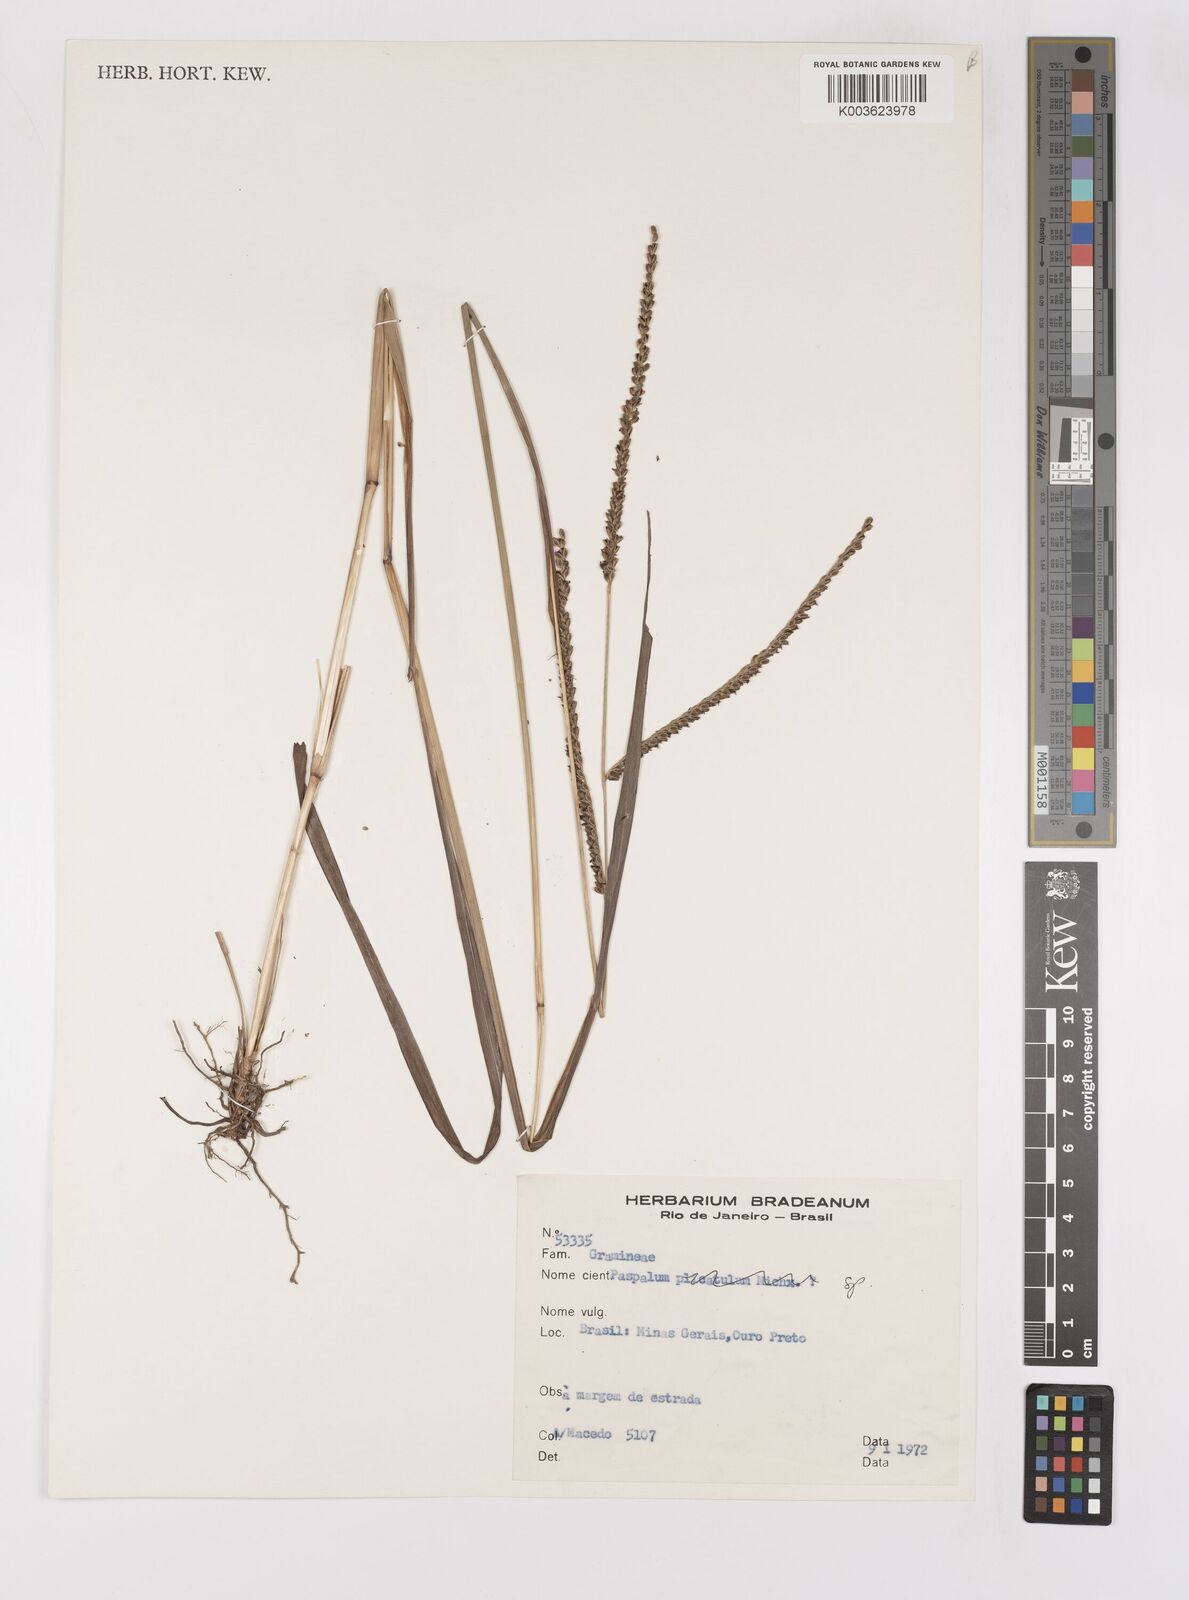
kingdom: Plantae
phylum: Tracheophyta
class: Liliopsida
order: Poales
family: Poaceae
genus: Paspalum
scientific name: Paspalum glaucescens
